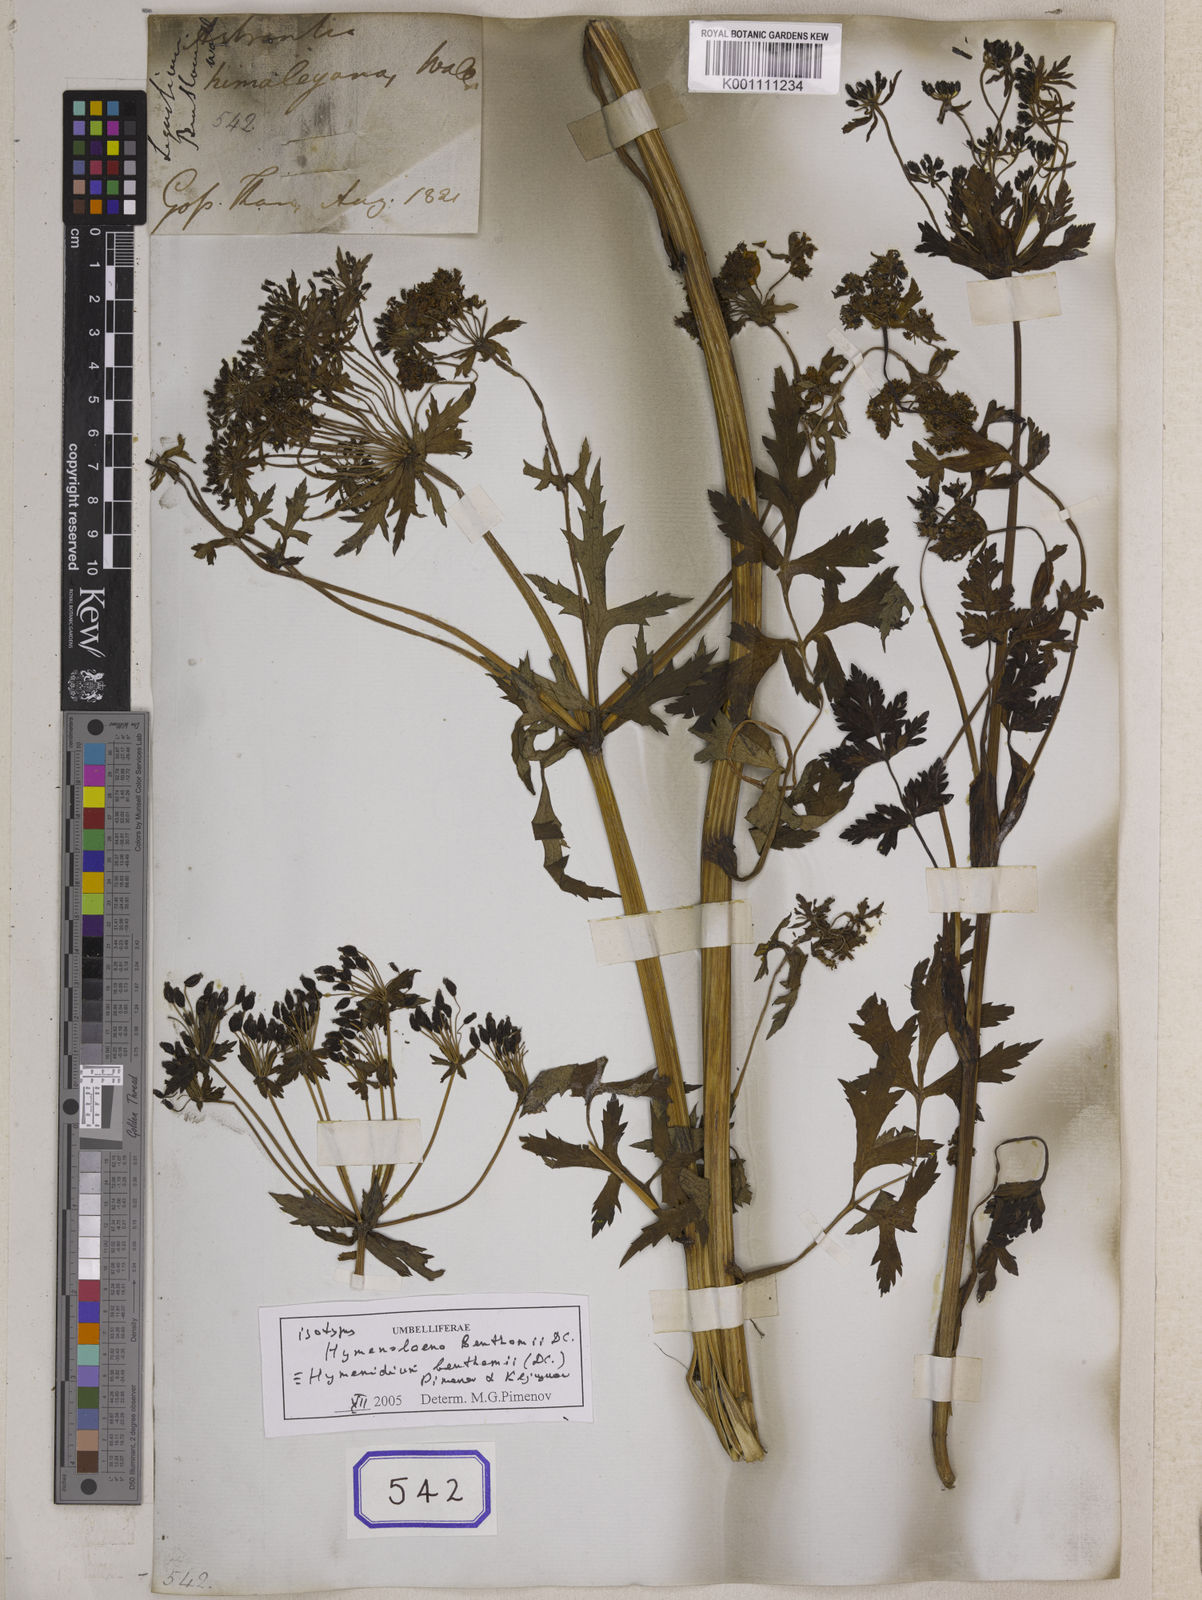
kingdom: Plantae
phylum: Tracheophyta
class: Magnoliopsida
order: Apiales
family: Apiaceae
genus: Hymenidium
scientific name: Hymenidium benthamii
